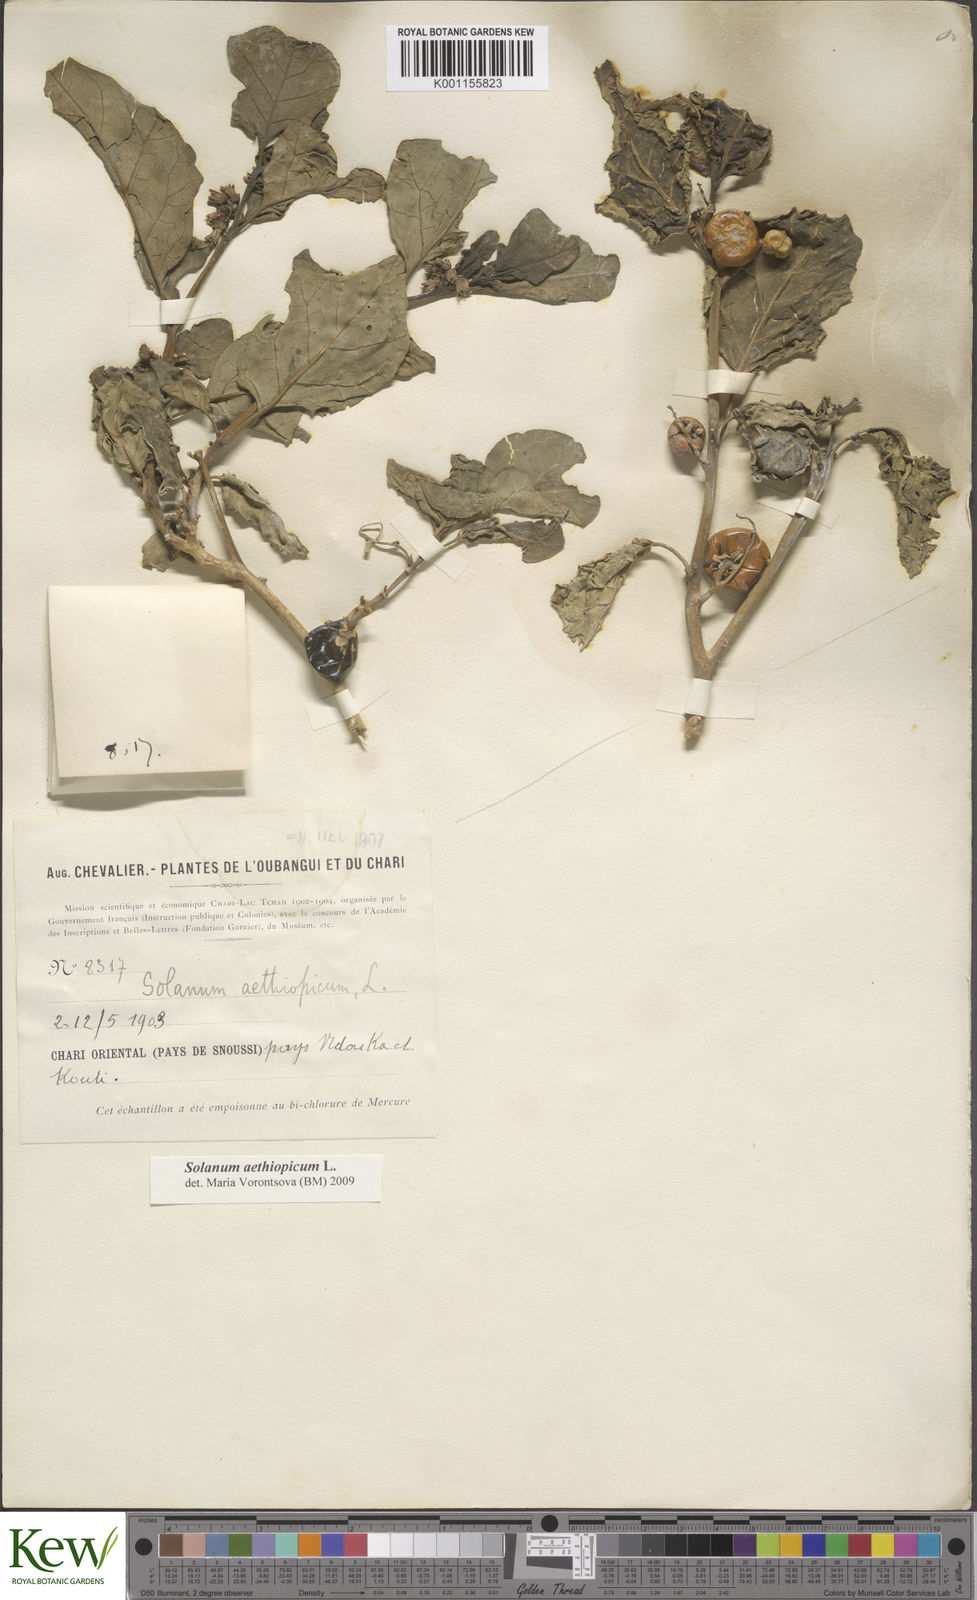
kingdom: Plantae
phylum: Tracheophyta
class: Magnoliopsida
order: Solanales
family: Solanaceae
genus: Solanum
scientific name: Solanum aethiopicum
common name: Gilo
